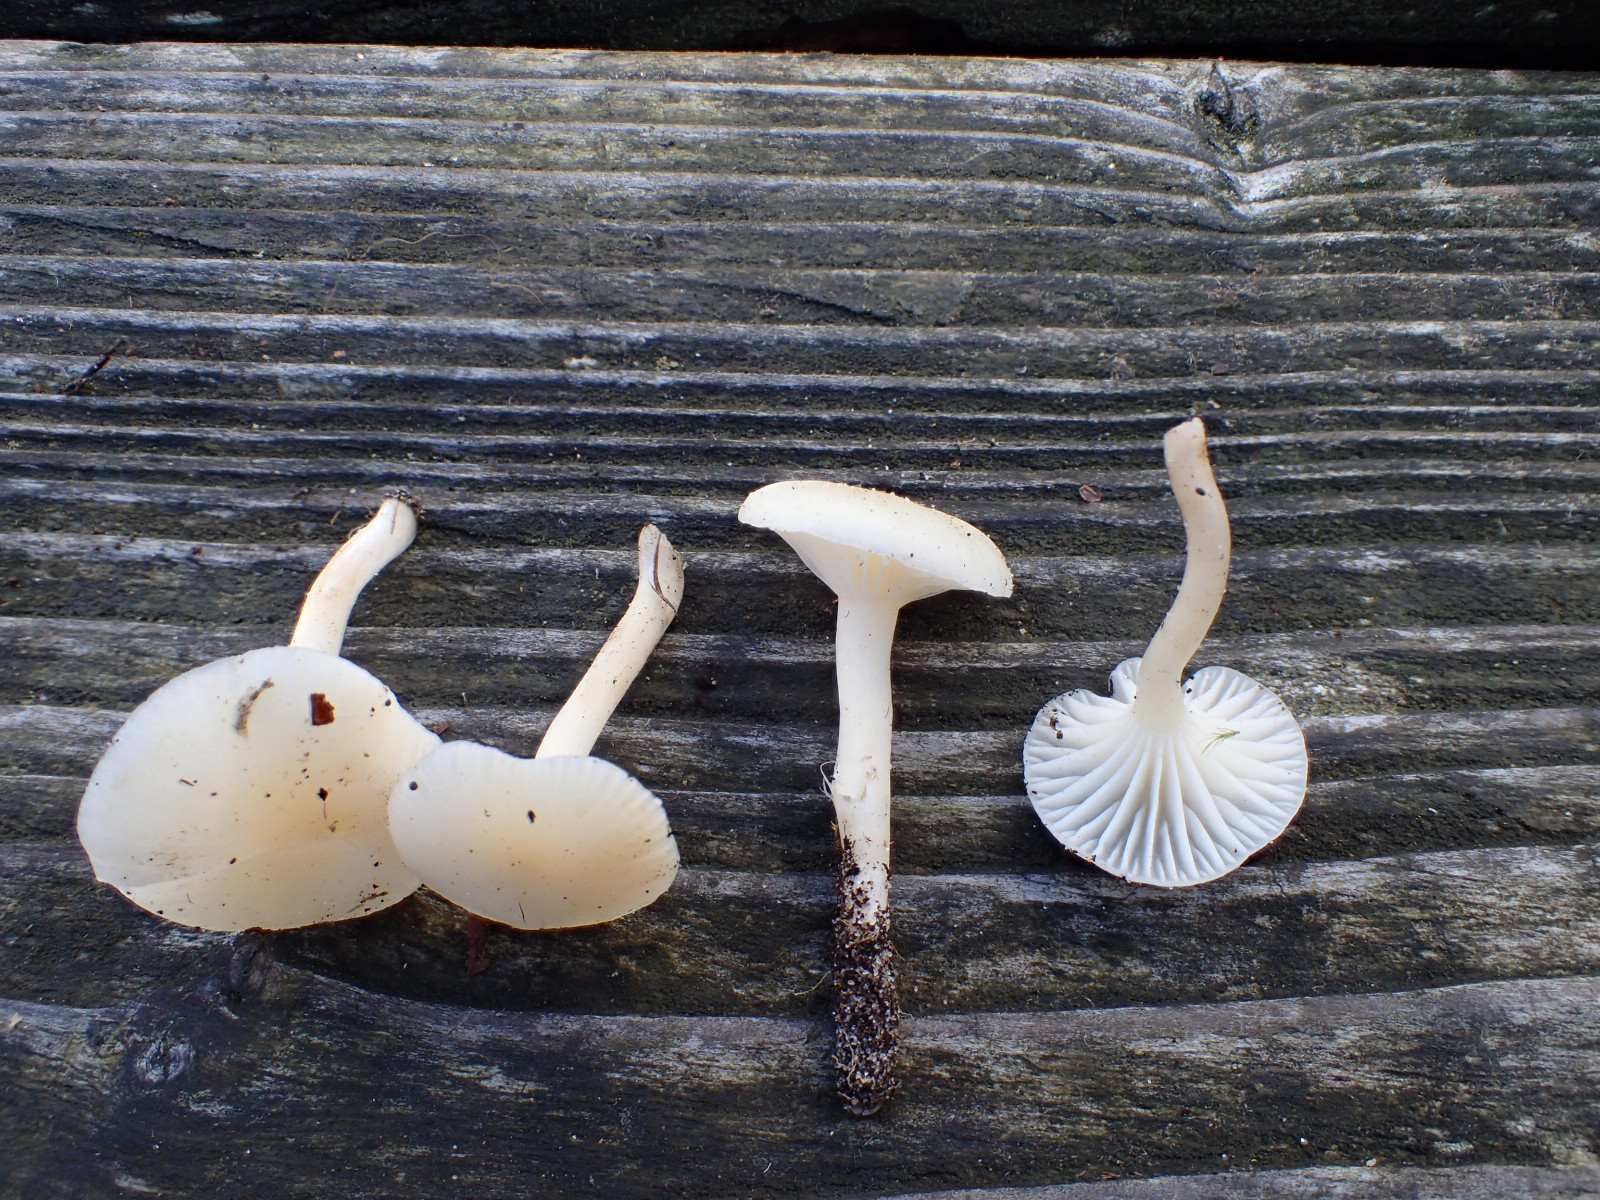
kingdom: Fungi
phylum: Basidiomycota
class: Agaricomycetes
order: Agaricales
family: Hygrophoraceae
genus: Cuphophyllus
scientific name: Cuphophyllus russocoriaceus
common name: ruslæder-vokshat
